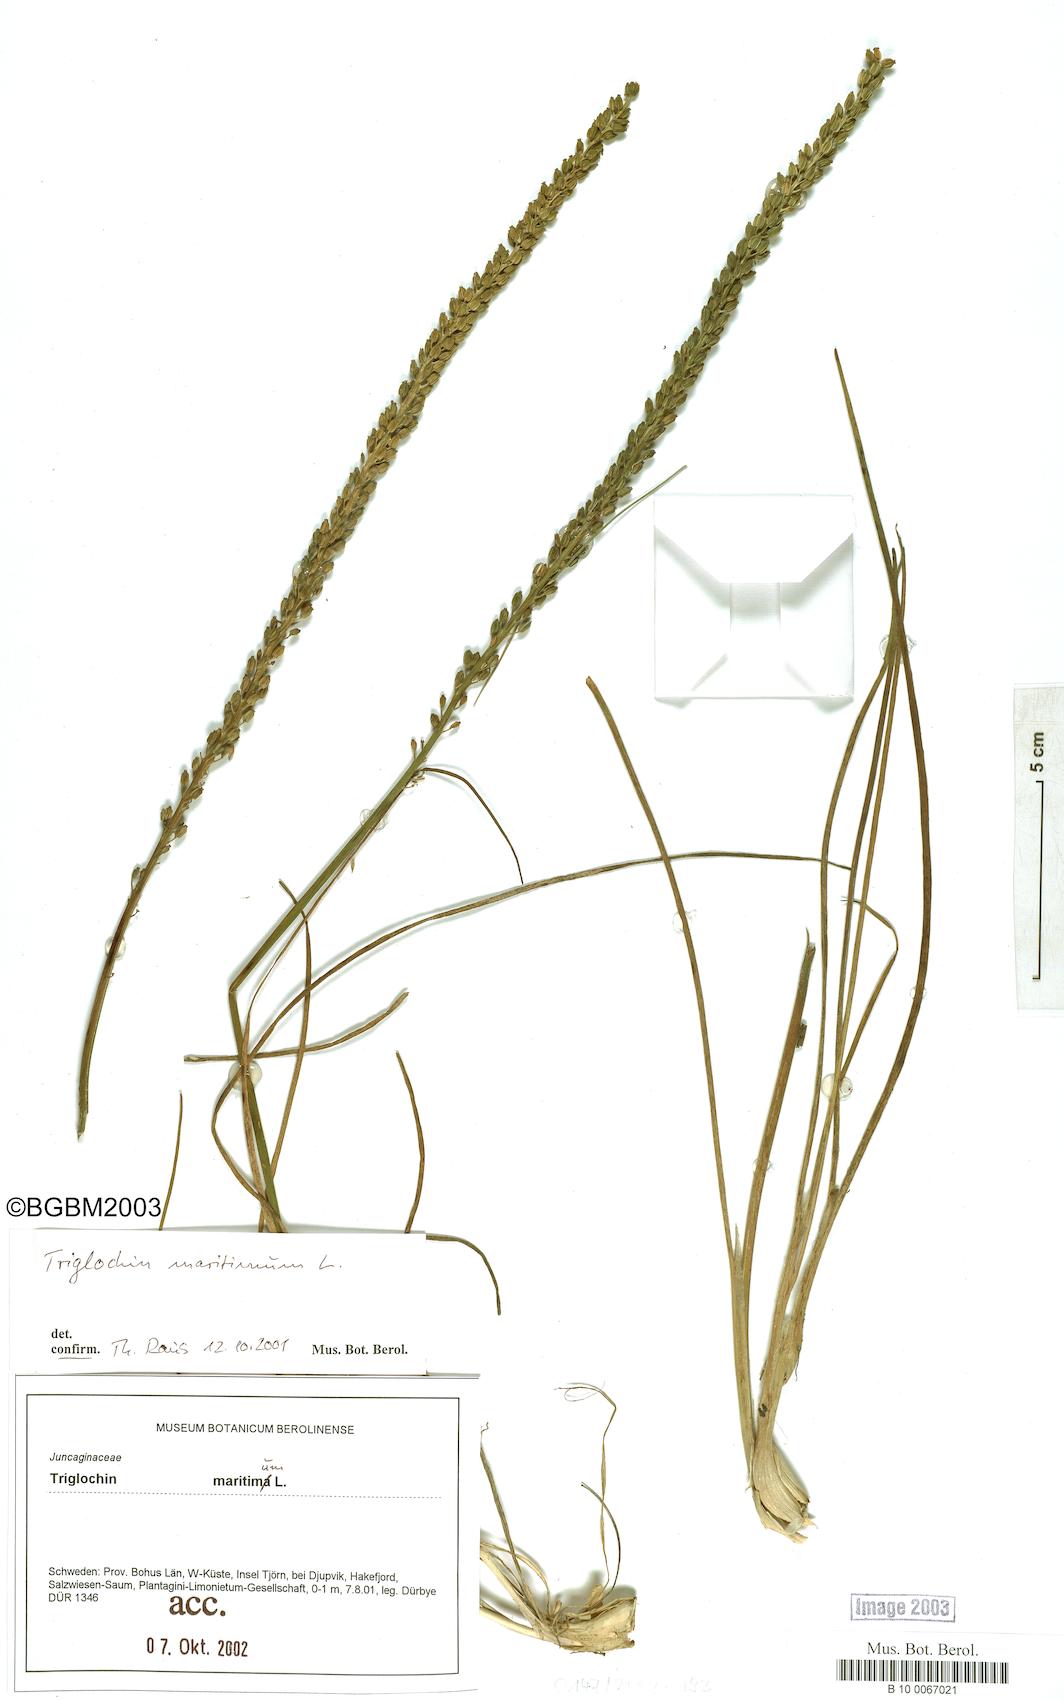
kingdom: Plantae
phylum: Tracheophyta
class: Liliopsida
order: Alismatales
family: Juncaginaceae
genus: Triglochin
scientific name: Triglochin maritima
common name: Sea arrowgrass
